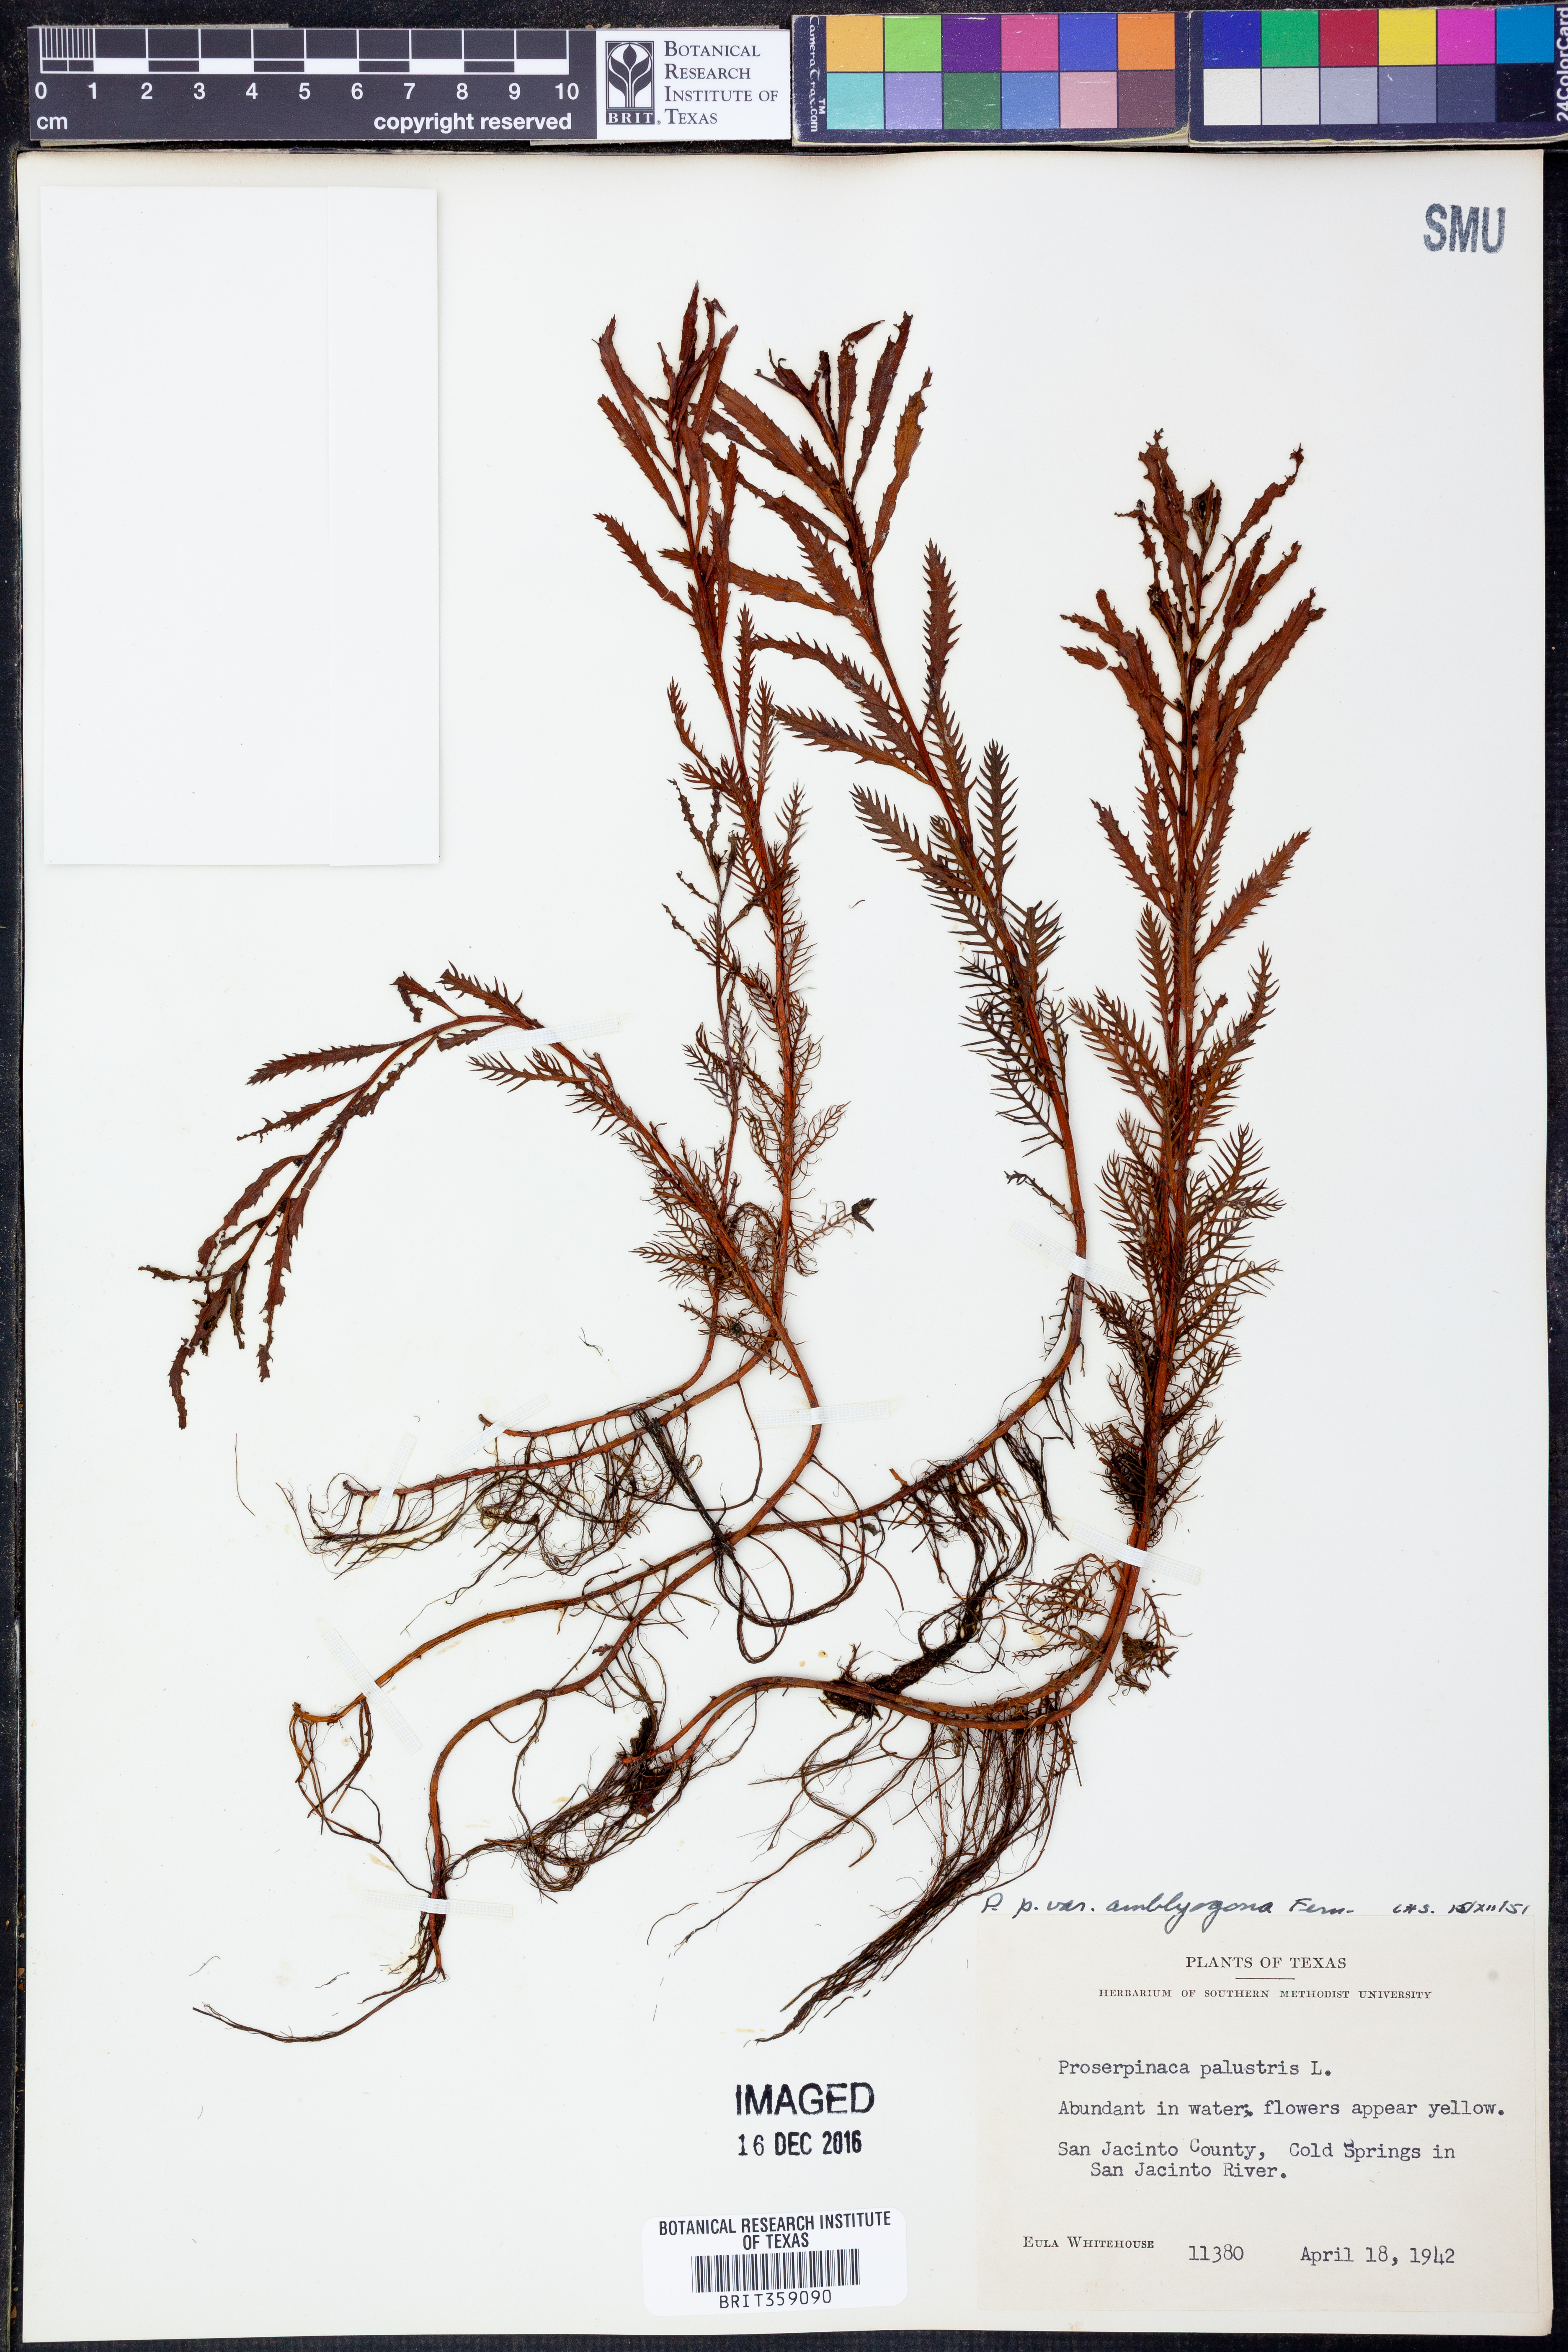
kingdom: Plantae
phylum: Tracheophyta
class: Magnoliopsida
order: Saxifragales
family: Haloragaceae
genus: Proserpinaca
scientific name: Proserpinaca palustris
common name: Marsh mermaidweed
